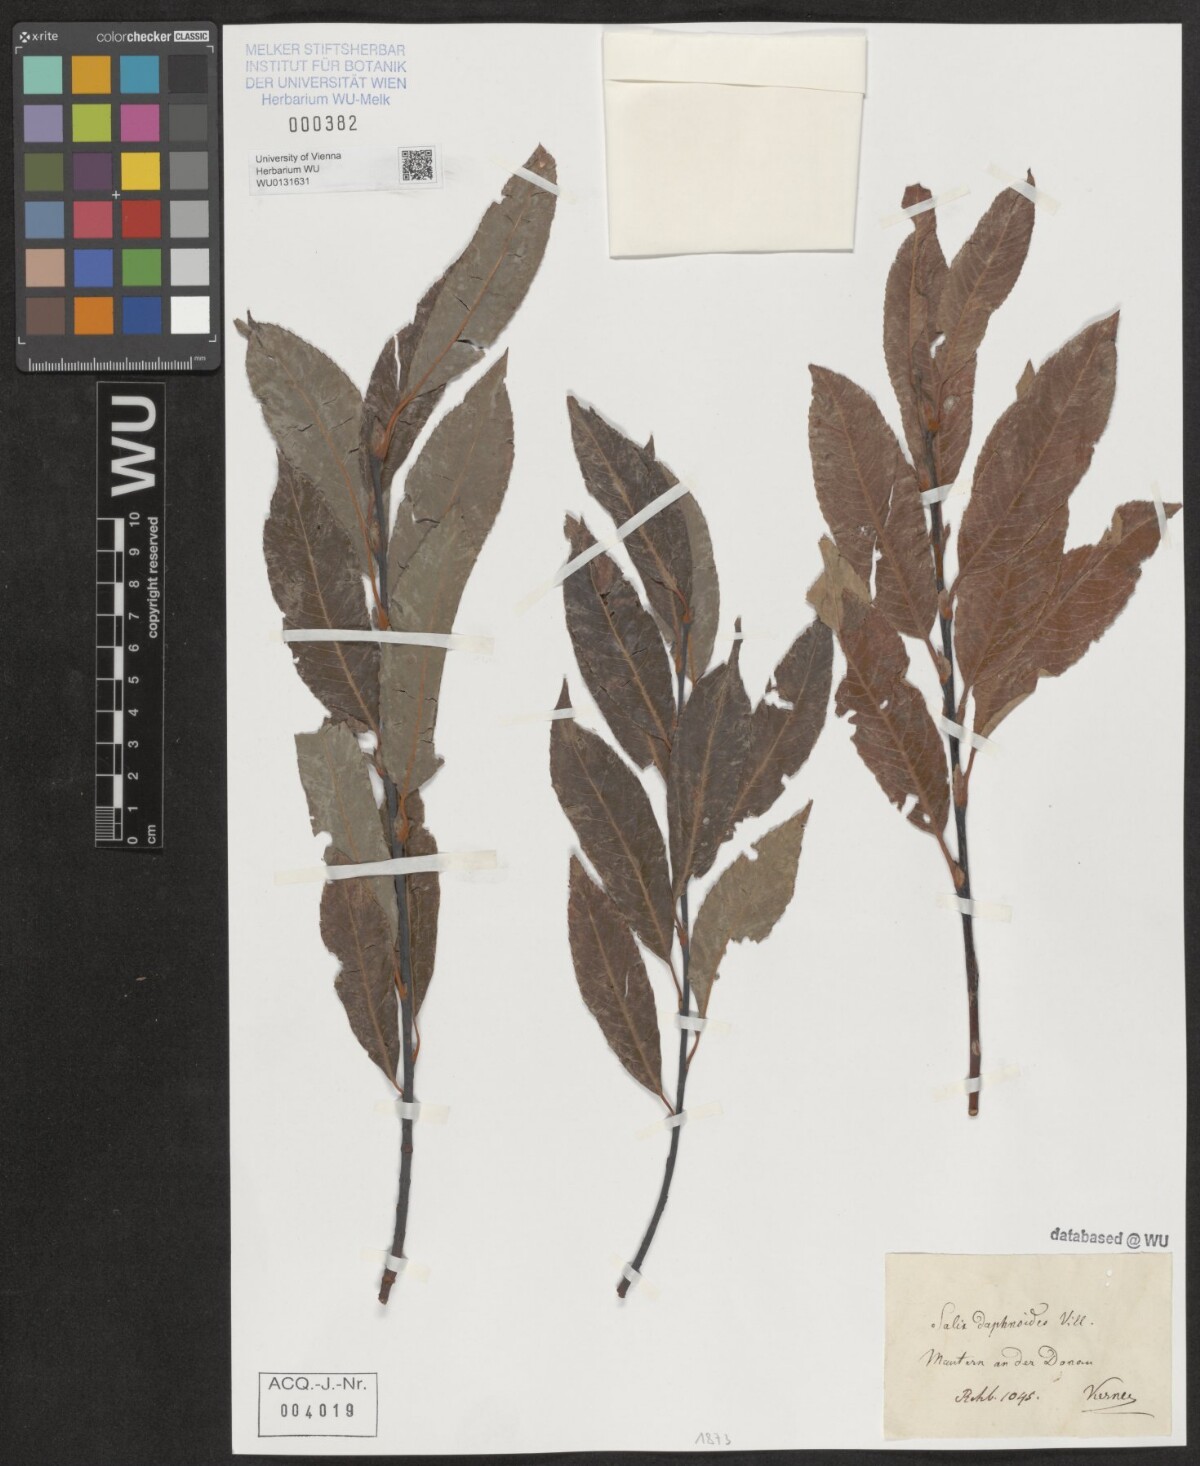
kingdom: Plantae
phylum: Tracheophyta
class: Magnoliopsida
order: Malpighiales
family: Salicaceae
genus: Salix
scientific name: Salix daphnoides
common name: European violet-willow
